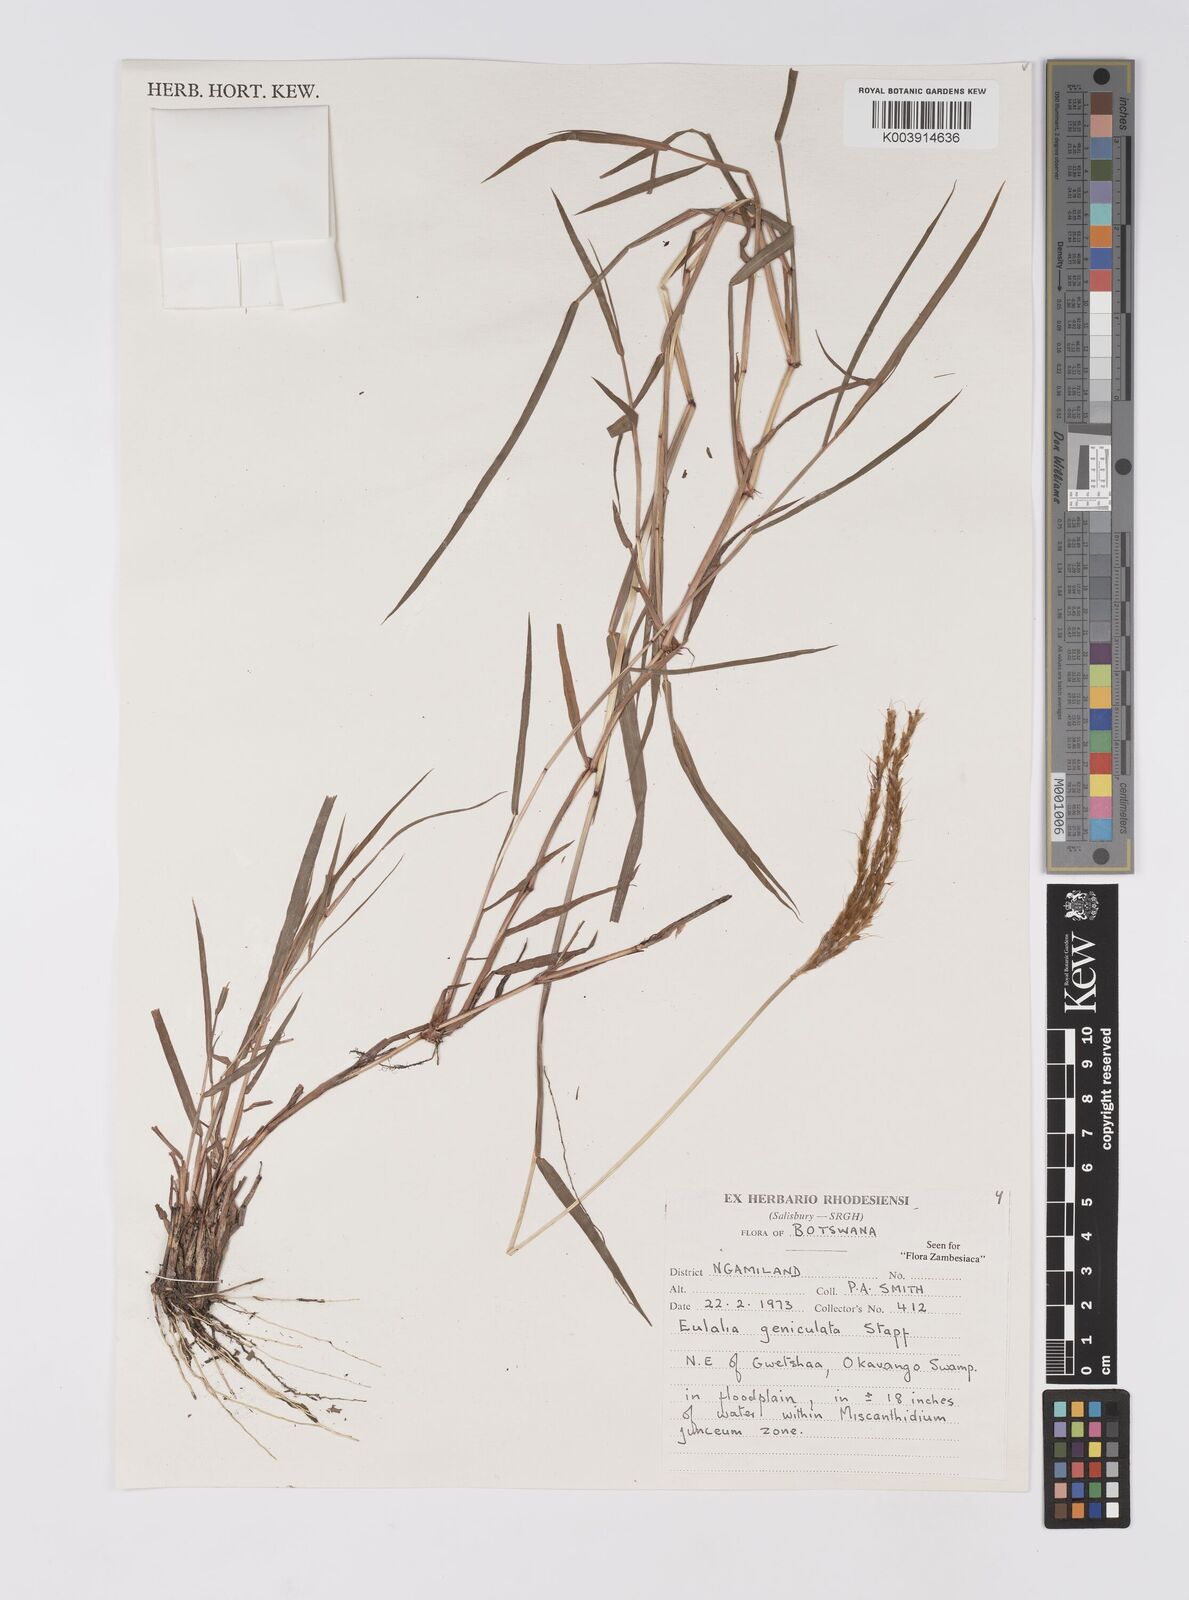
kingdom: Plantae
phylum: Tracheophyta
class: Liliopsida
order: Poales
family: Poaceae
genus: Eulalia
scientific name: Eulalia aurea
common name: Silky browntop
